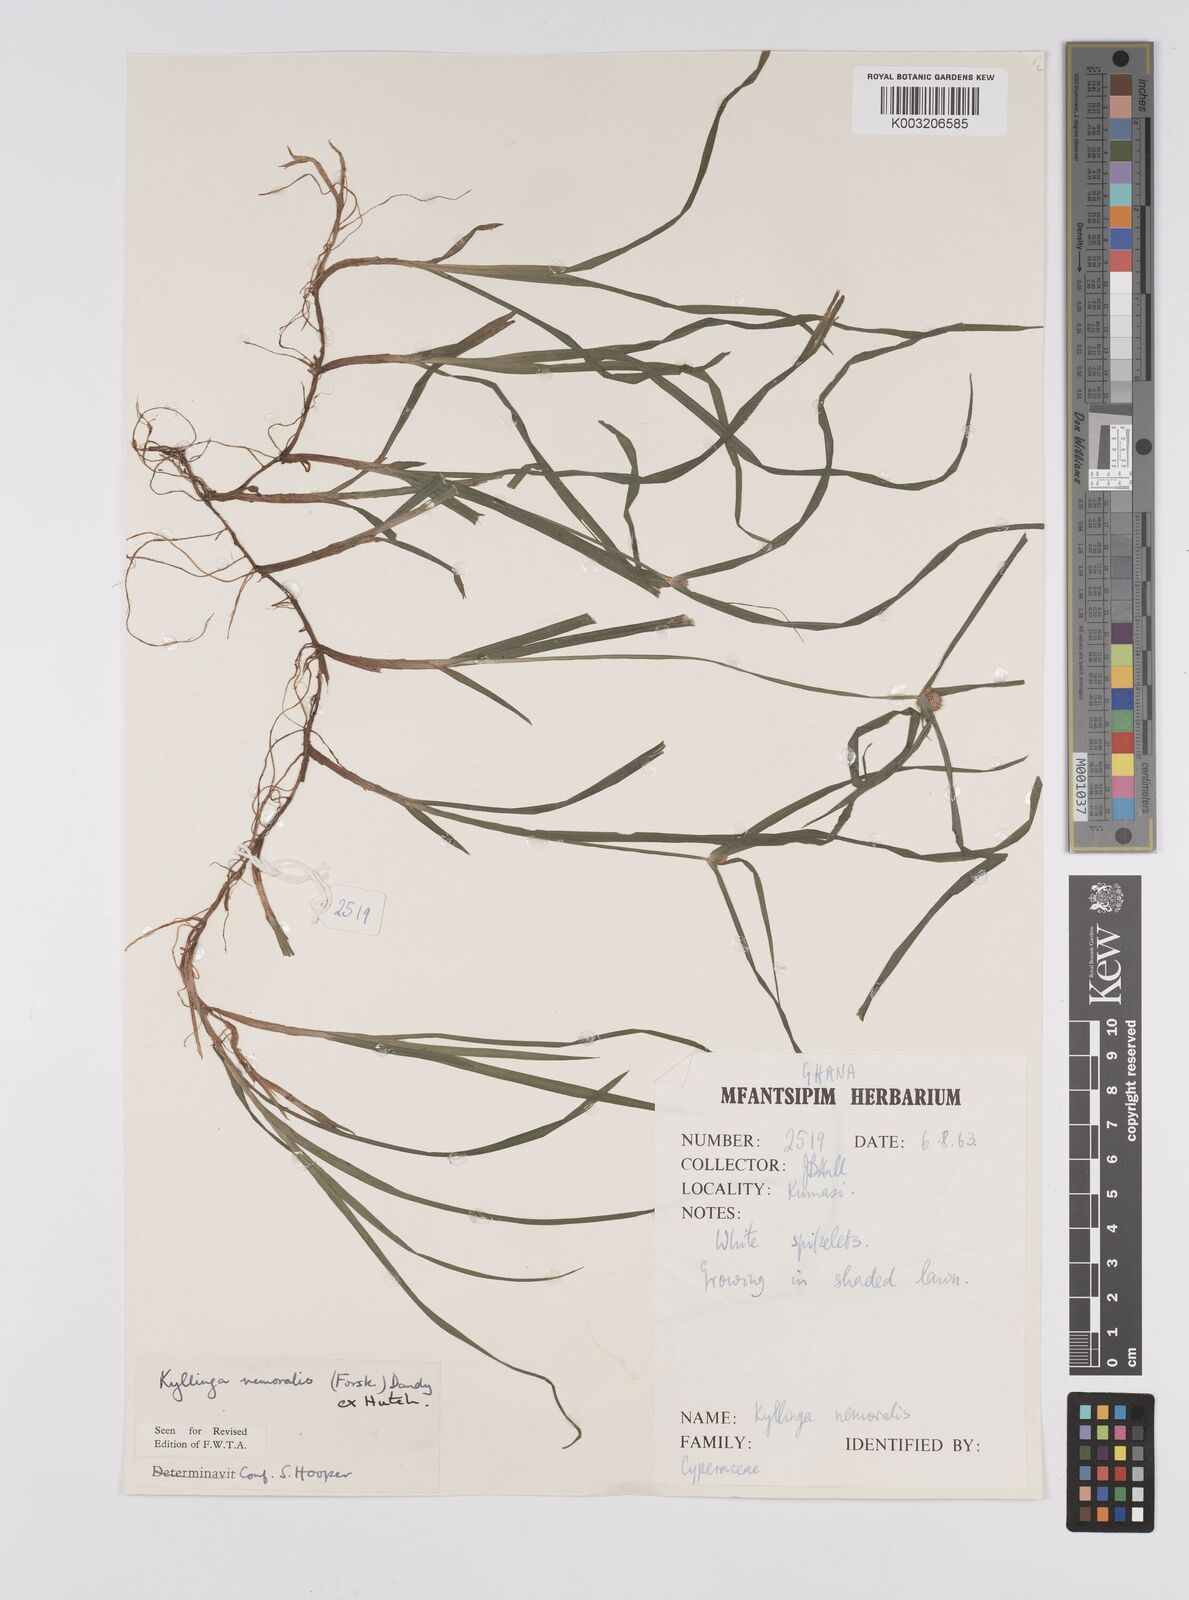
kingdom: Plantae
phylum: Tracheophyta
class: Liliopsida
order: Poales
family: Cyperaceae
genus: Cyperus
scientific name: Cyperus nemoralis
